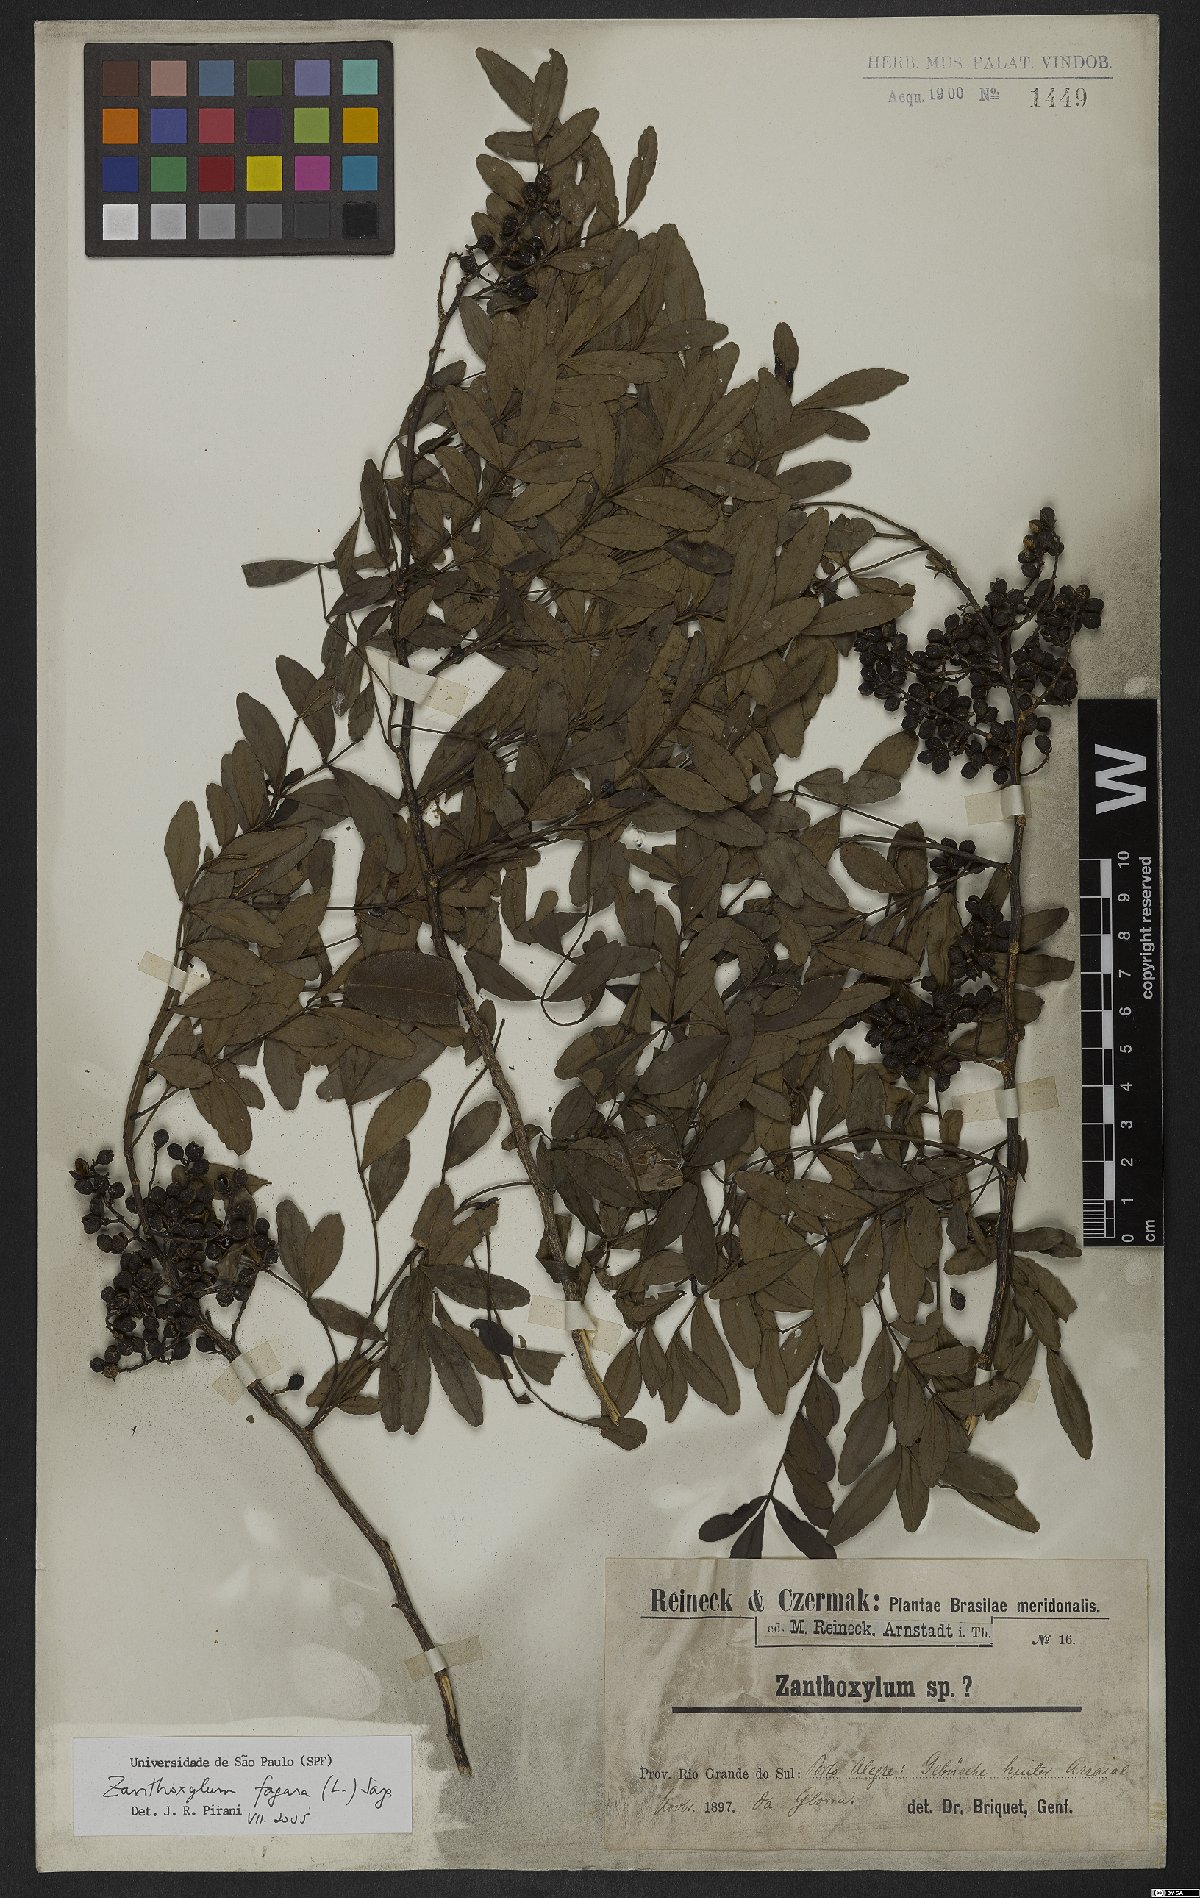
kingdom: Plantae
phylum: Tracheophyta
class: Magnoliopsida
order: Sapindales
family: Rutaceae
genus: Zanthoxylum
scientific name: Zanthoxylum fagara
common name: Lime prickly-ash
